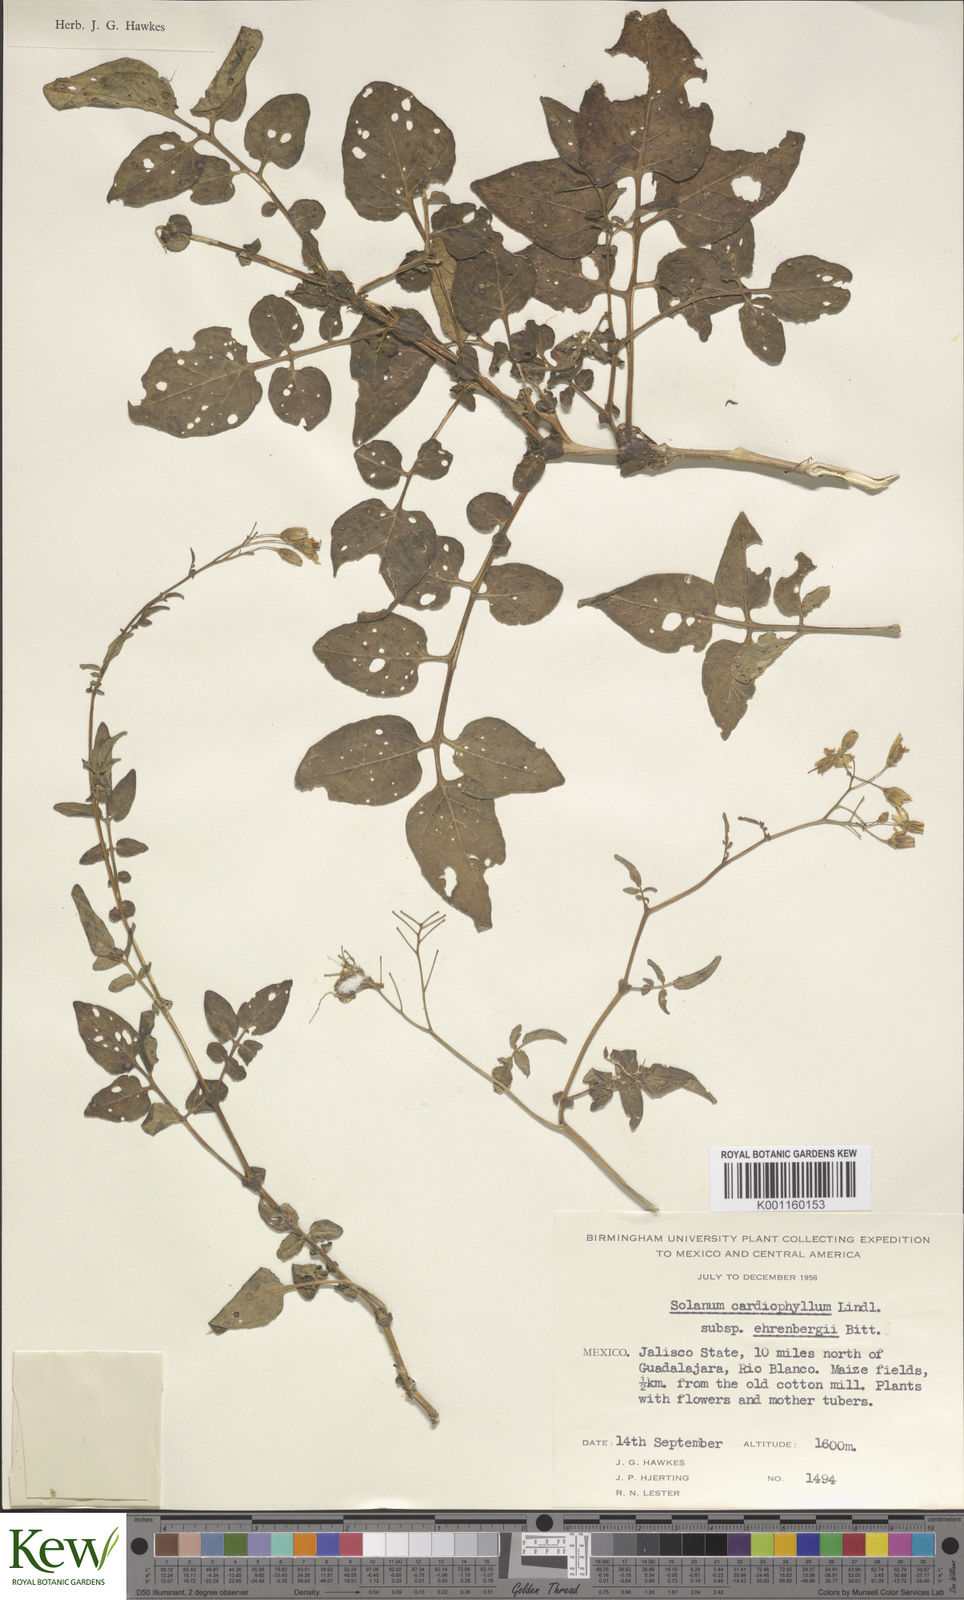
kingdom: Plantae
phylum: Tracheophyta
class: Magnoliopsida
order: Solanales
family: Solanaceae
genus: Solanum
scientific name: Solanum cardiophyllum
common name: Heartleaf horsenettle
